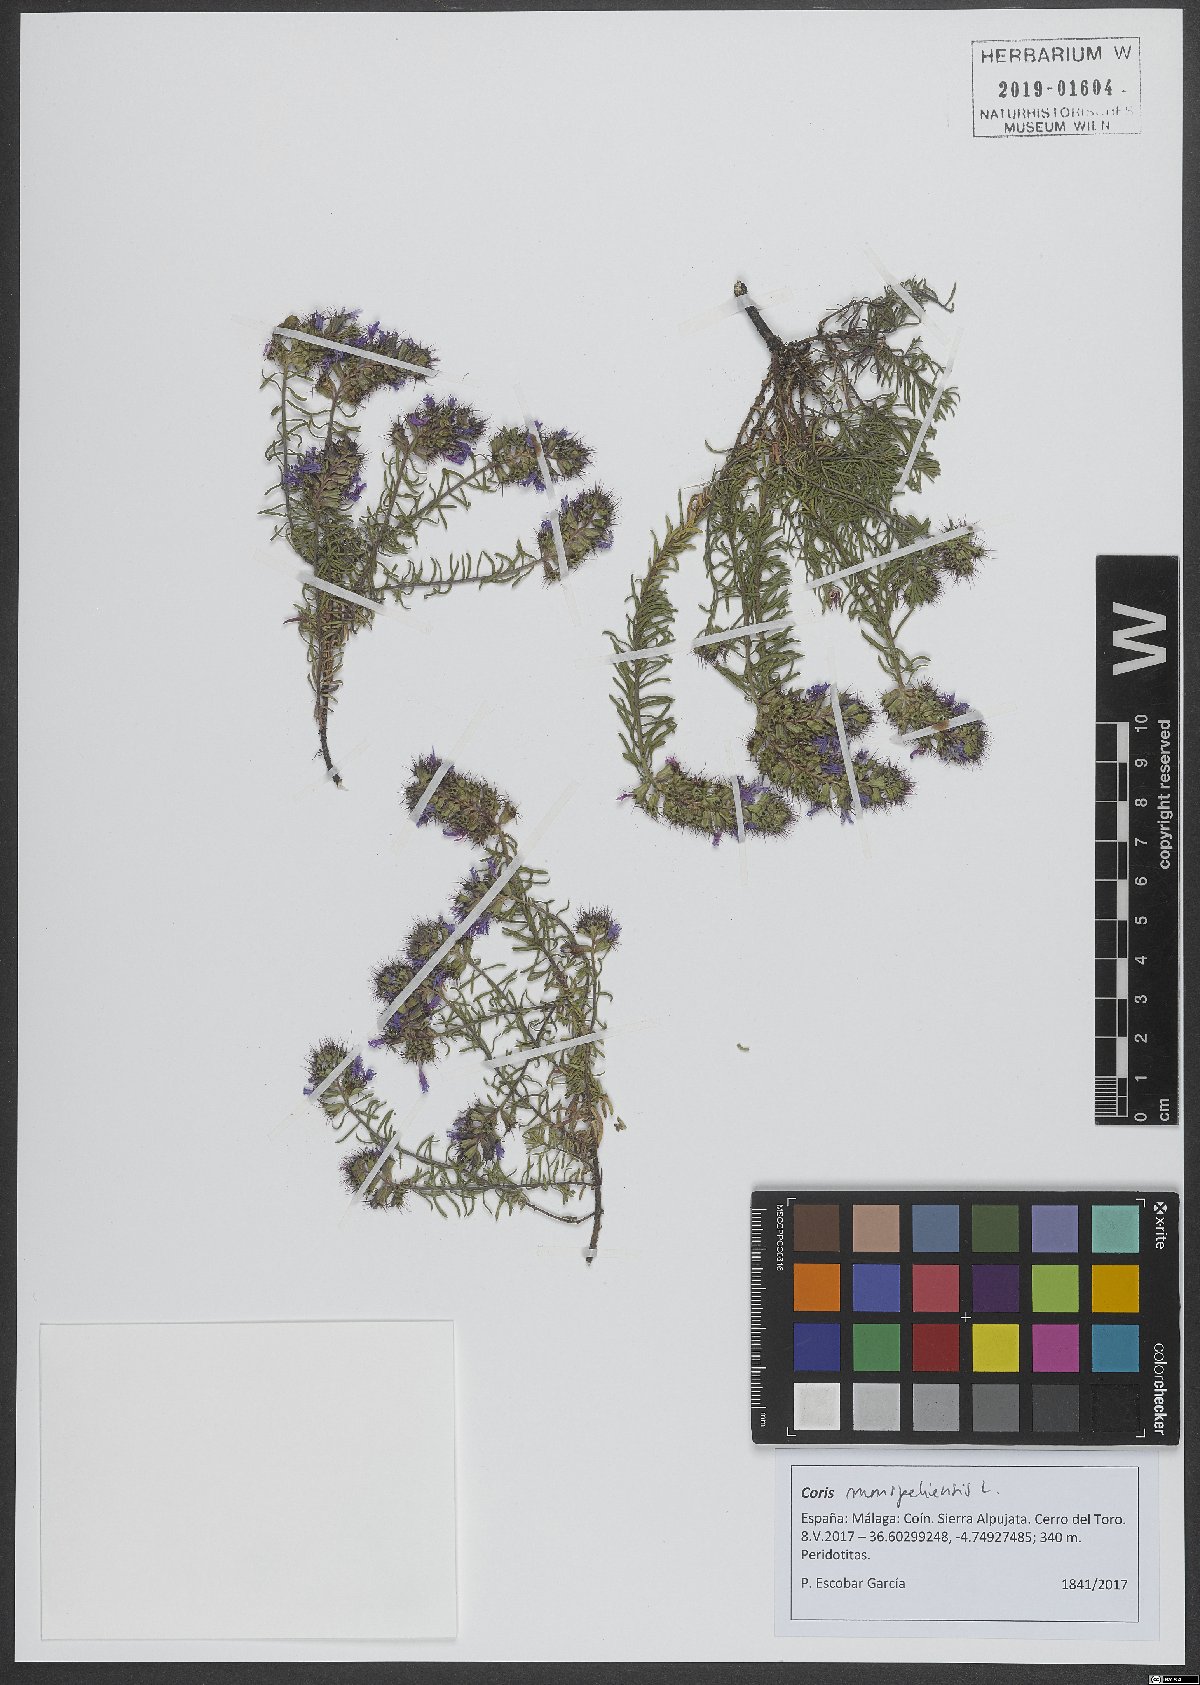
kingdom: Plantae
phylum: Tracheophyta
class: Magnoliopsida
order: Ericales
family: Primulaceae
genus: Coris
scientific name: Coris monspeliensis
